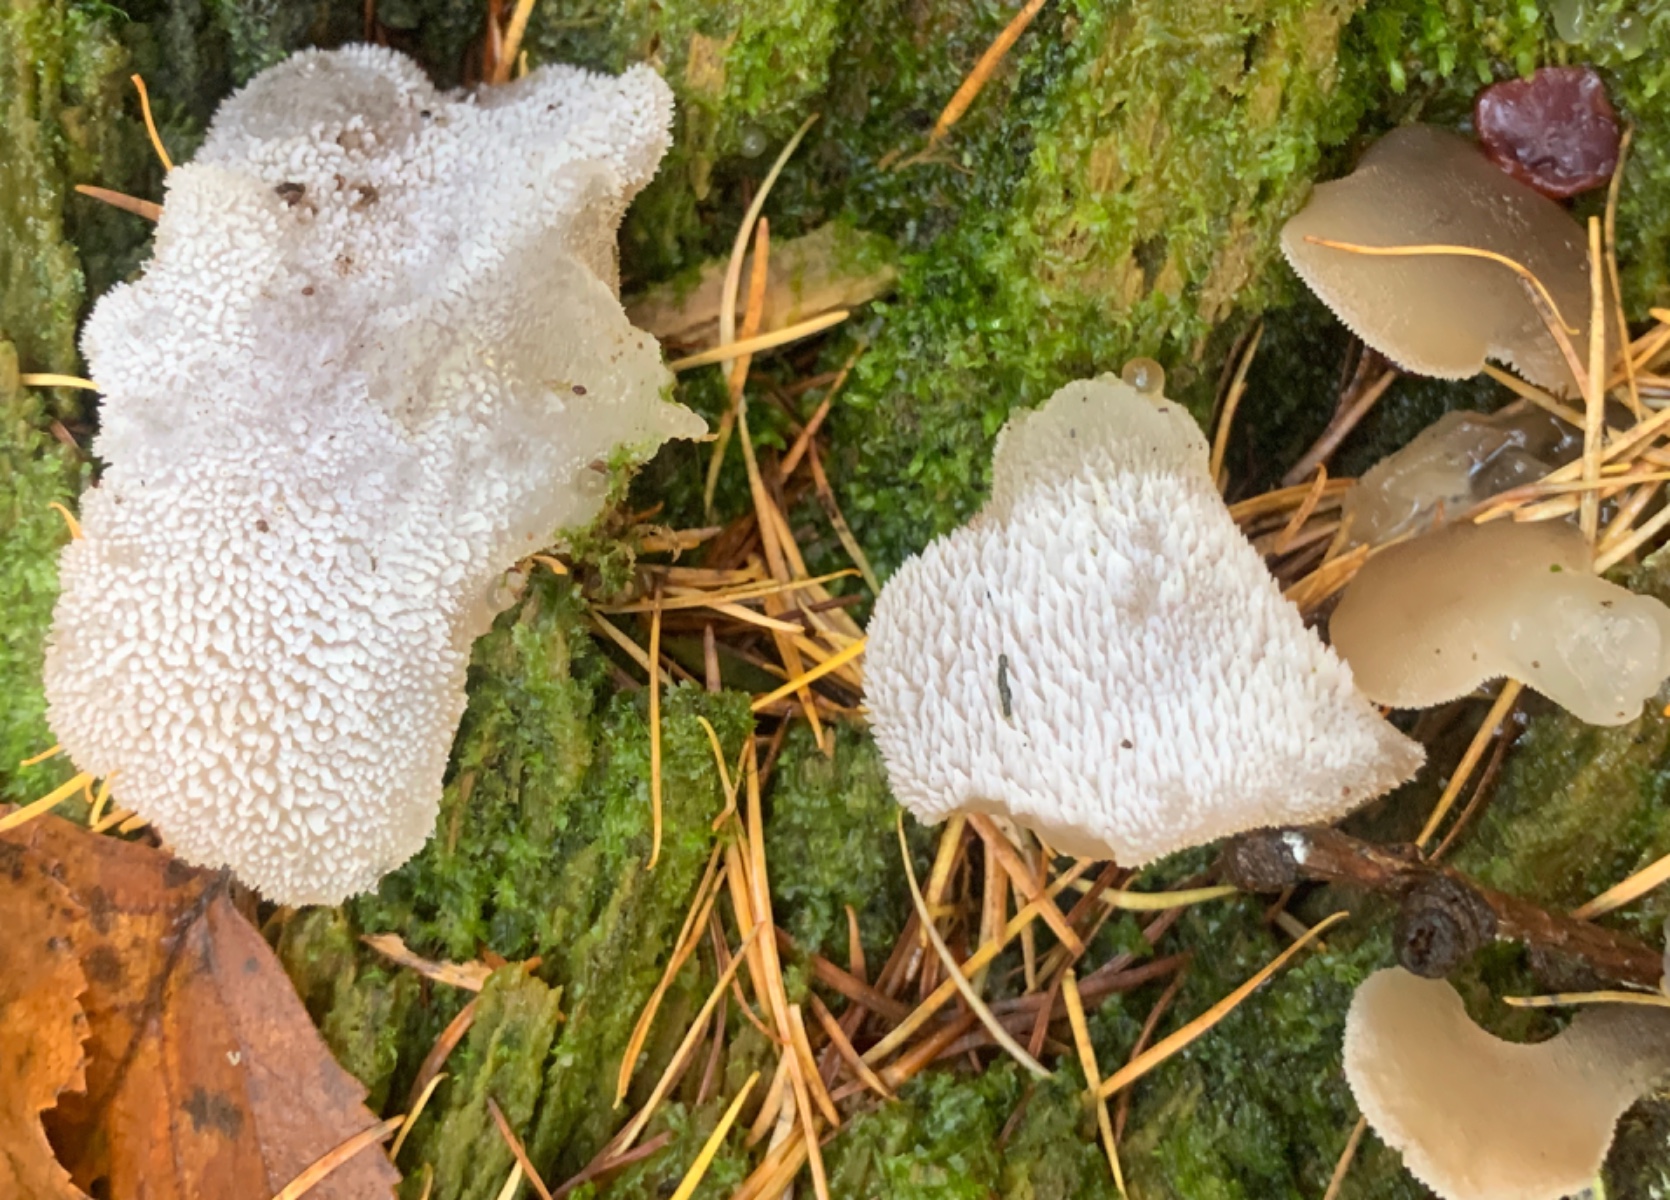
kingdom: Fungi
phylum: Basidiomycota
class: Agaricomycetes
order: Auriculariales
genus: Pseudohydnum
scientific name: Pseudohydnum gelatinosum
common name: bævretand
